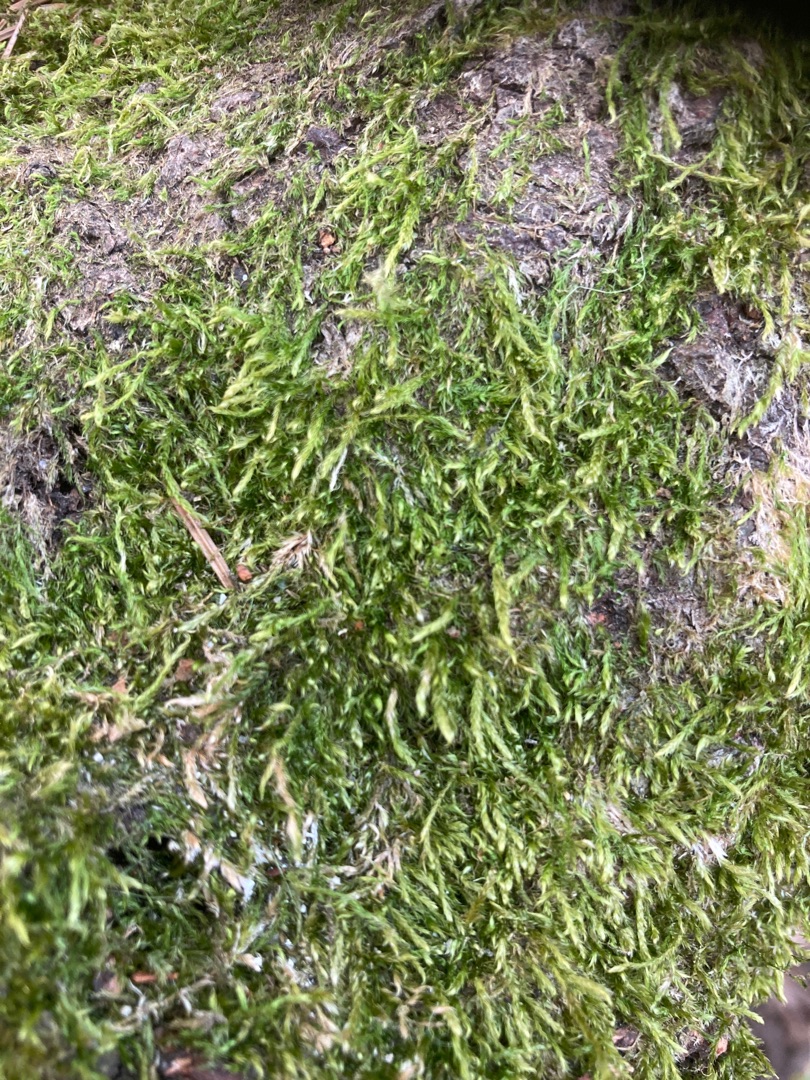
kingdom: Plantae
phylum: Bryophyta
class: Bryopsida
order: Hypnales
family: Hypnaceae
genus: Hypnum
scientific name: Hypnum
